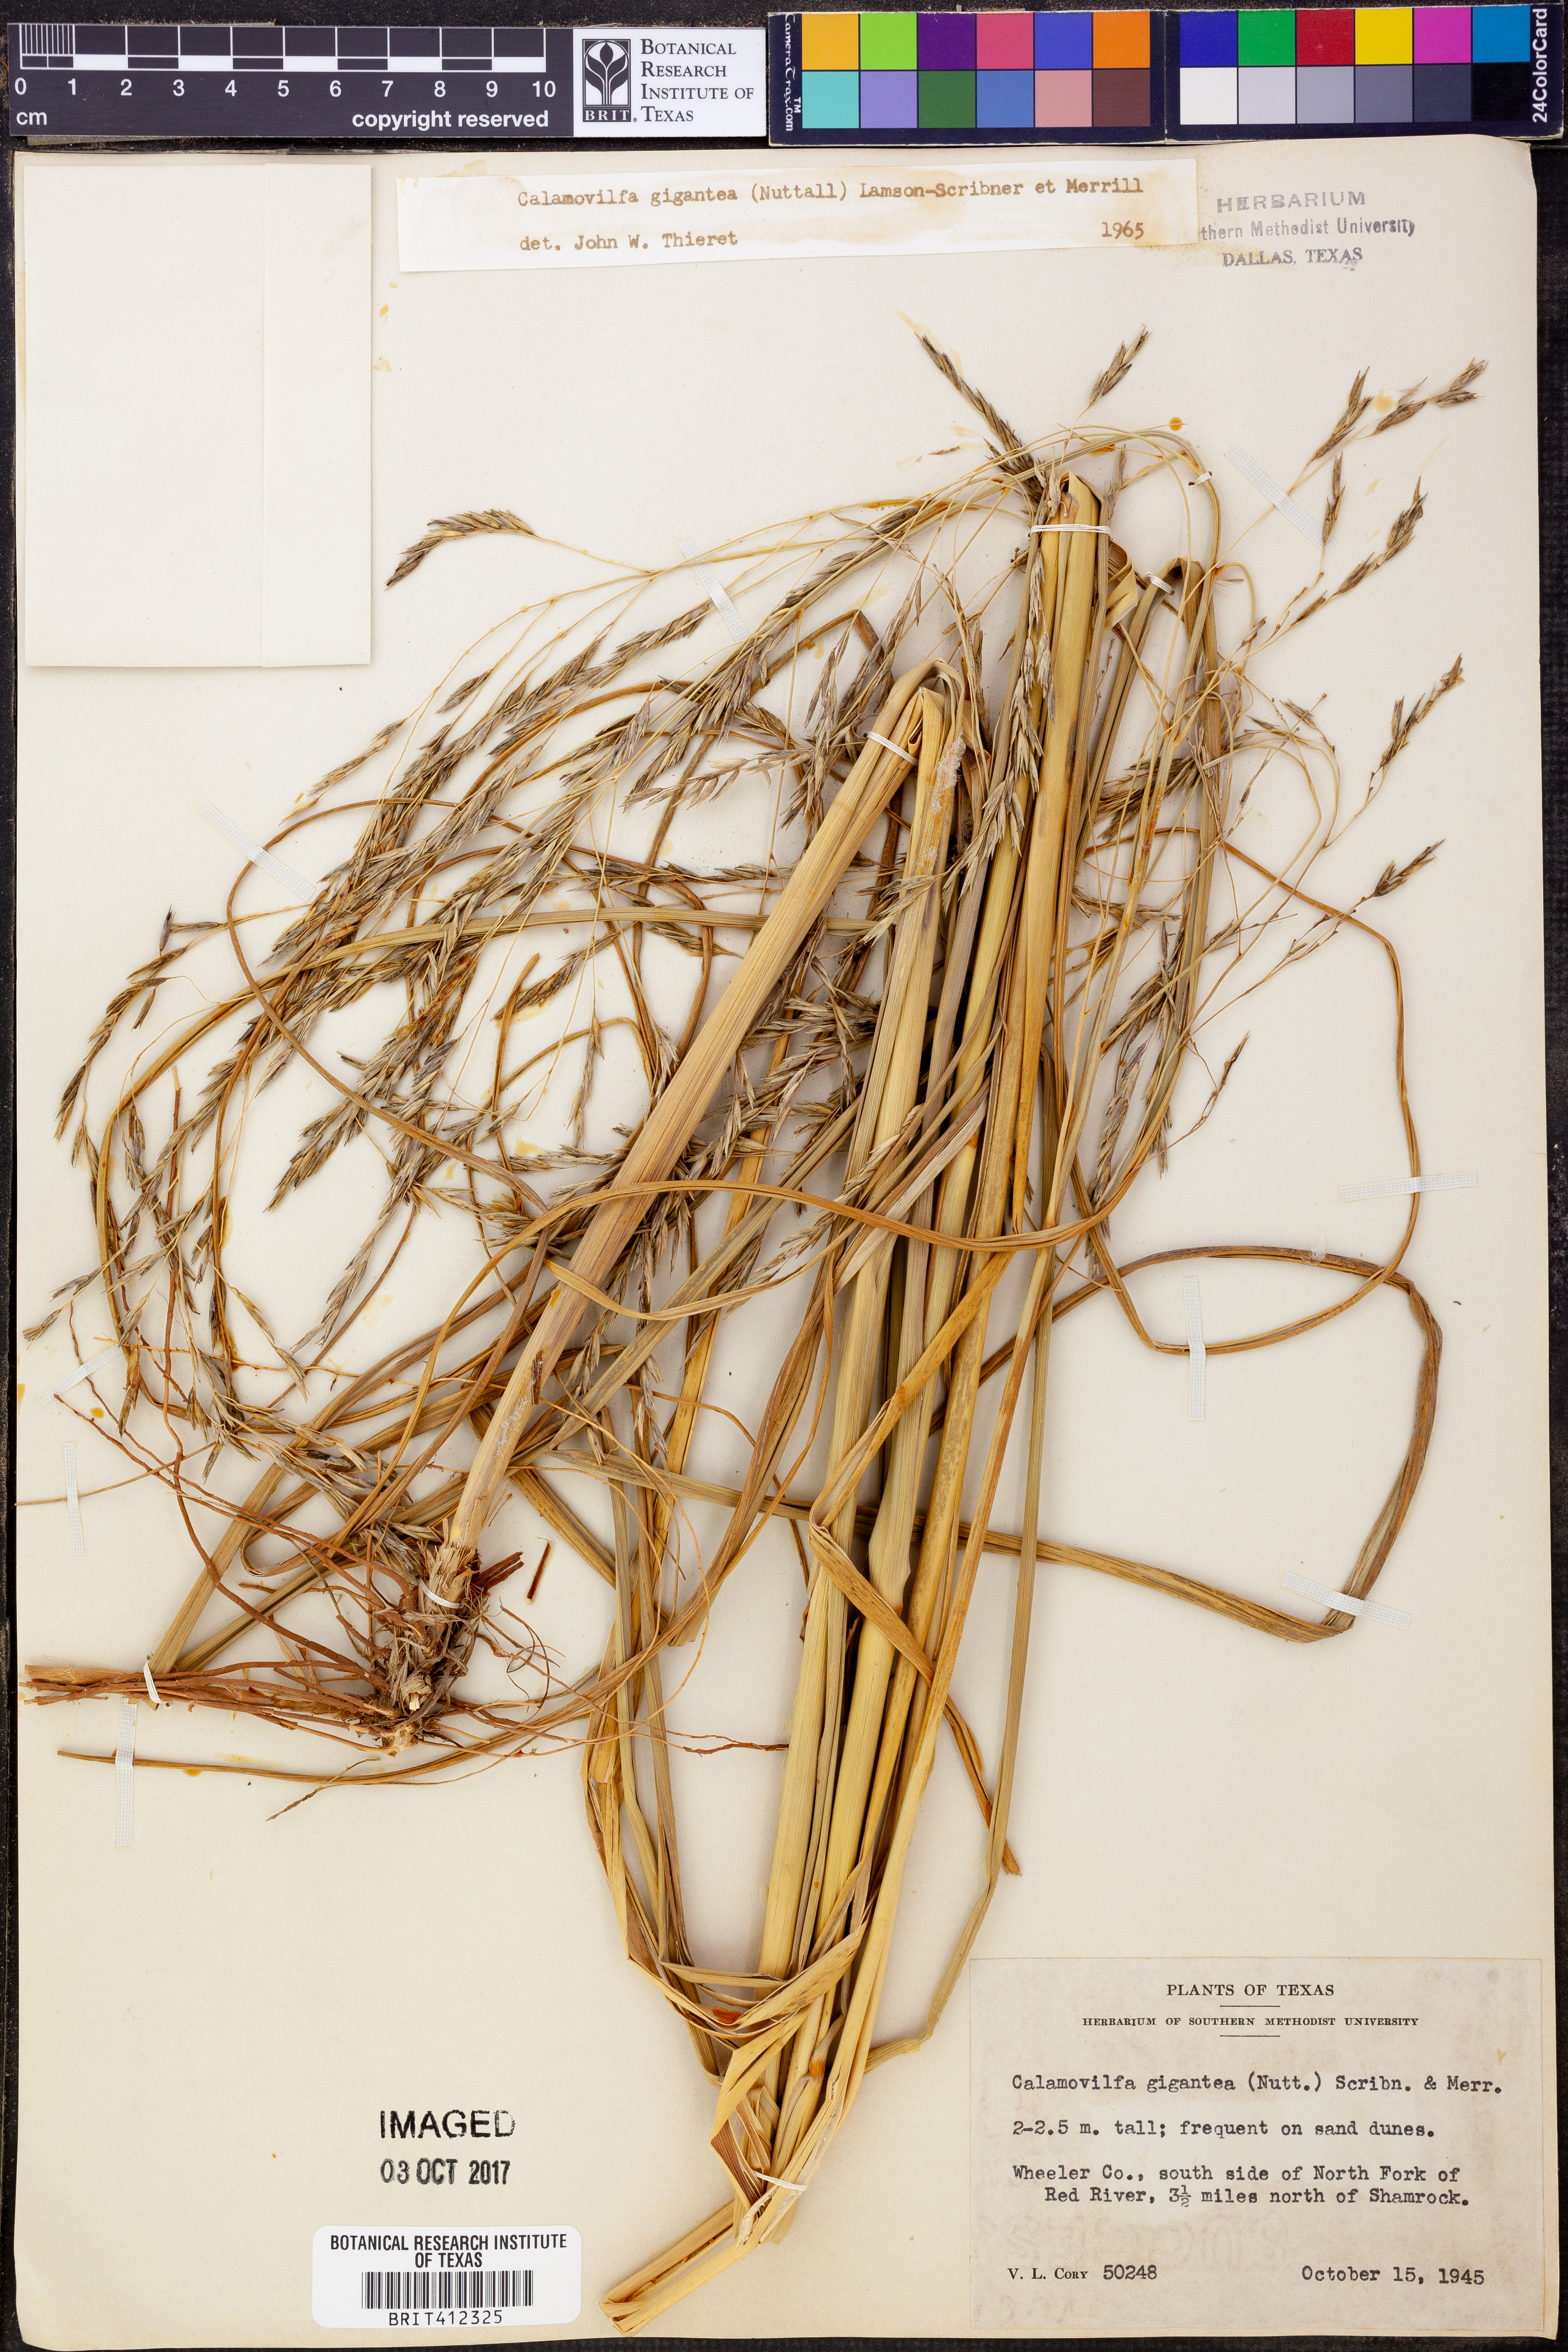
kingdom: Plantae
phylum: Tracheophyta
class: Liliopsida
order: Poales
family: Poaceae
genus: Sporobolus
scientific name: Sporobolus arenicola
